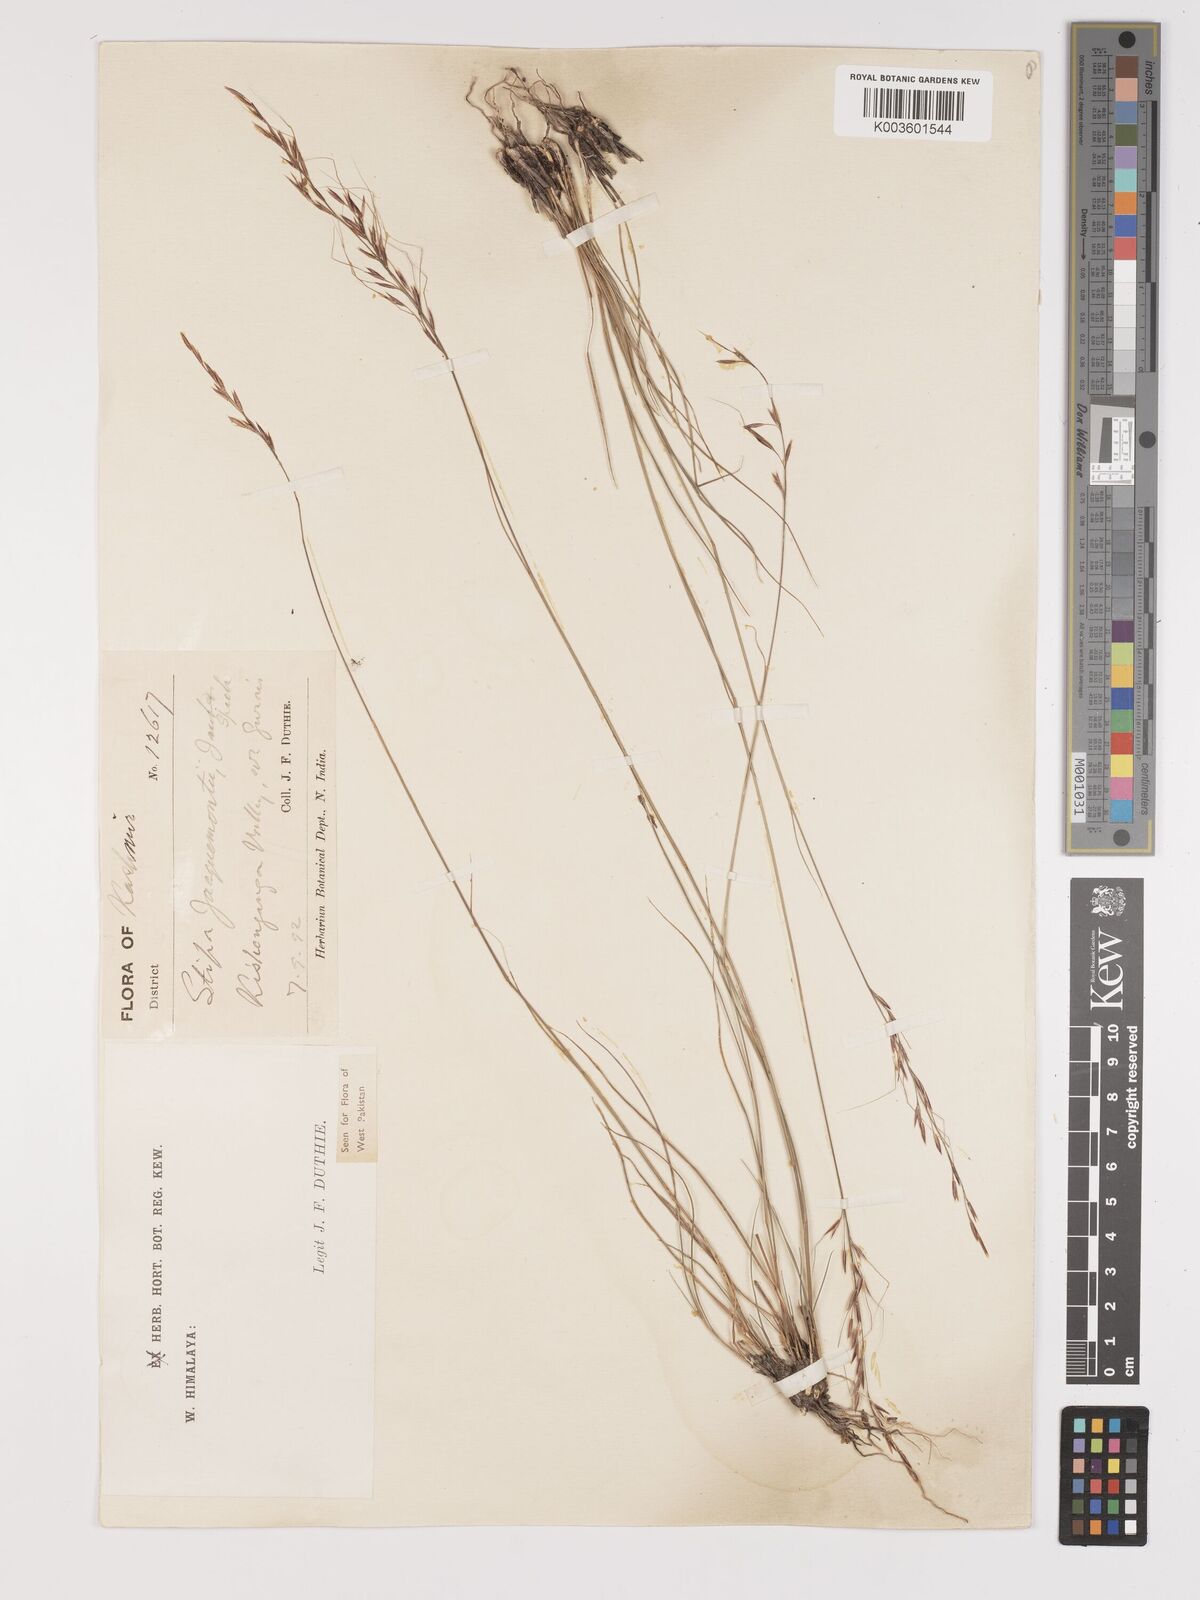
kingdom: Plantae
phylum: Tracheophyta
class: Liliopsida
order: Poales
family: Poaceae
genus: Achnatherum
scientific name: Achnatherum jacquemontii
